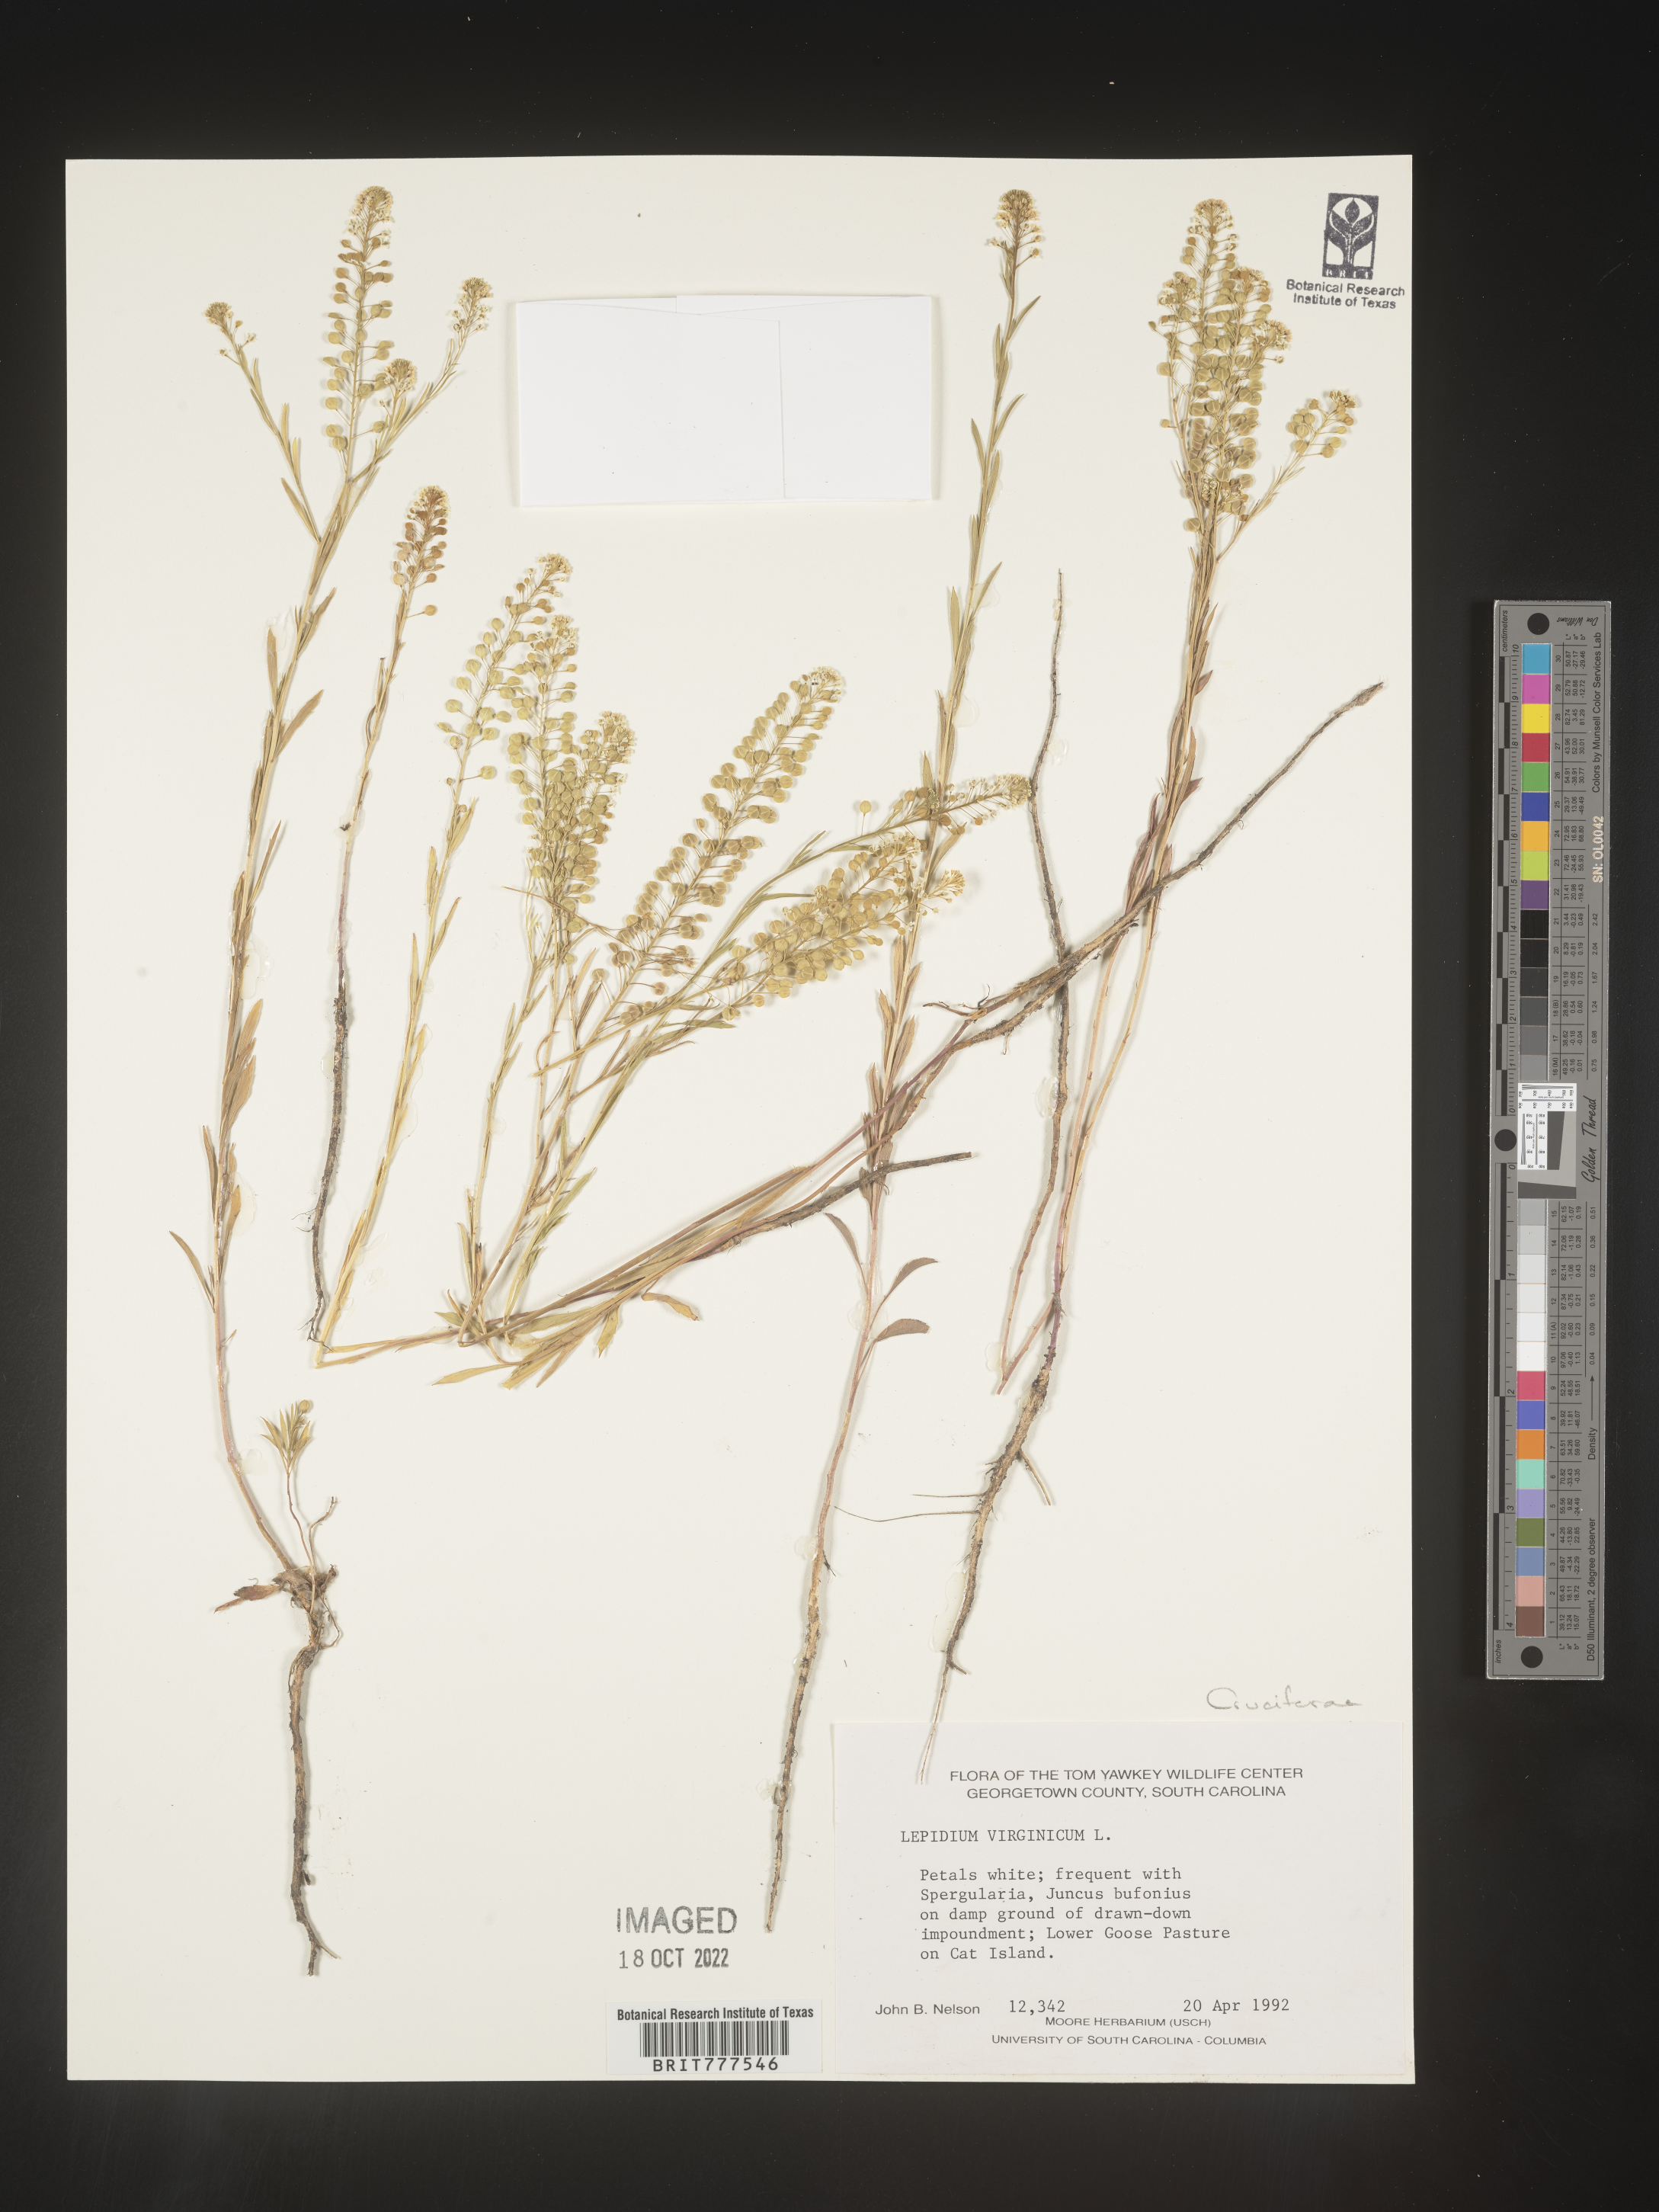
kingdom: Plantae
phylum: Tracheophyta
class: Magnoliopsida
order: Brassicales
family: Brassicaceae
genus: Lepidium
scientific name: Lepidium virginicum
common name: Least pepperwort
